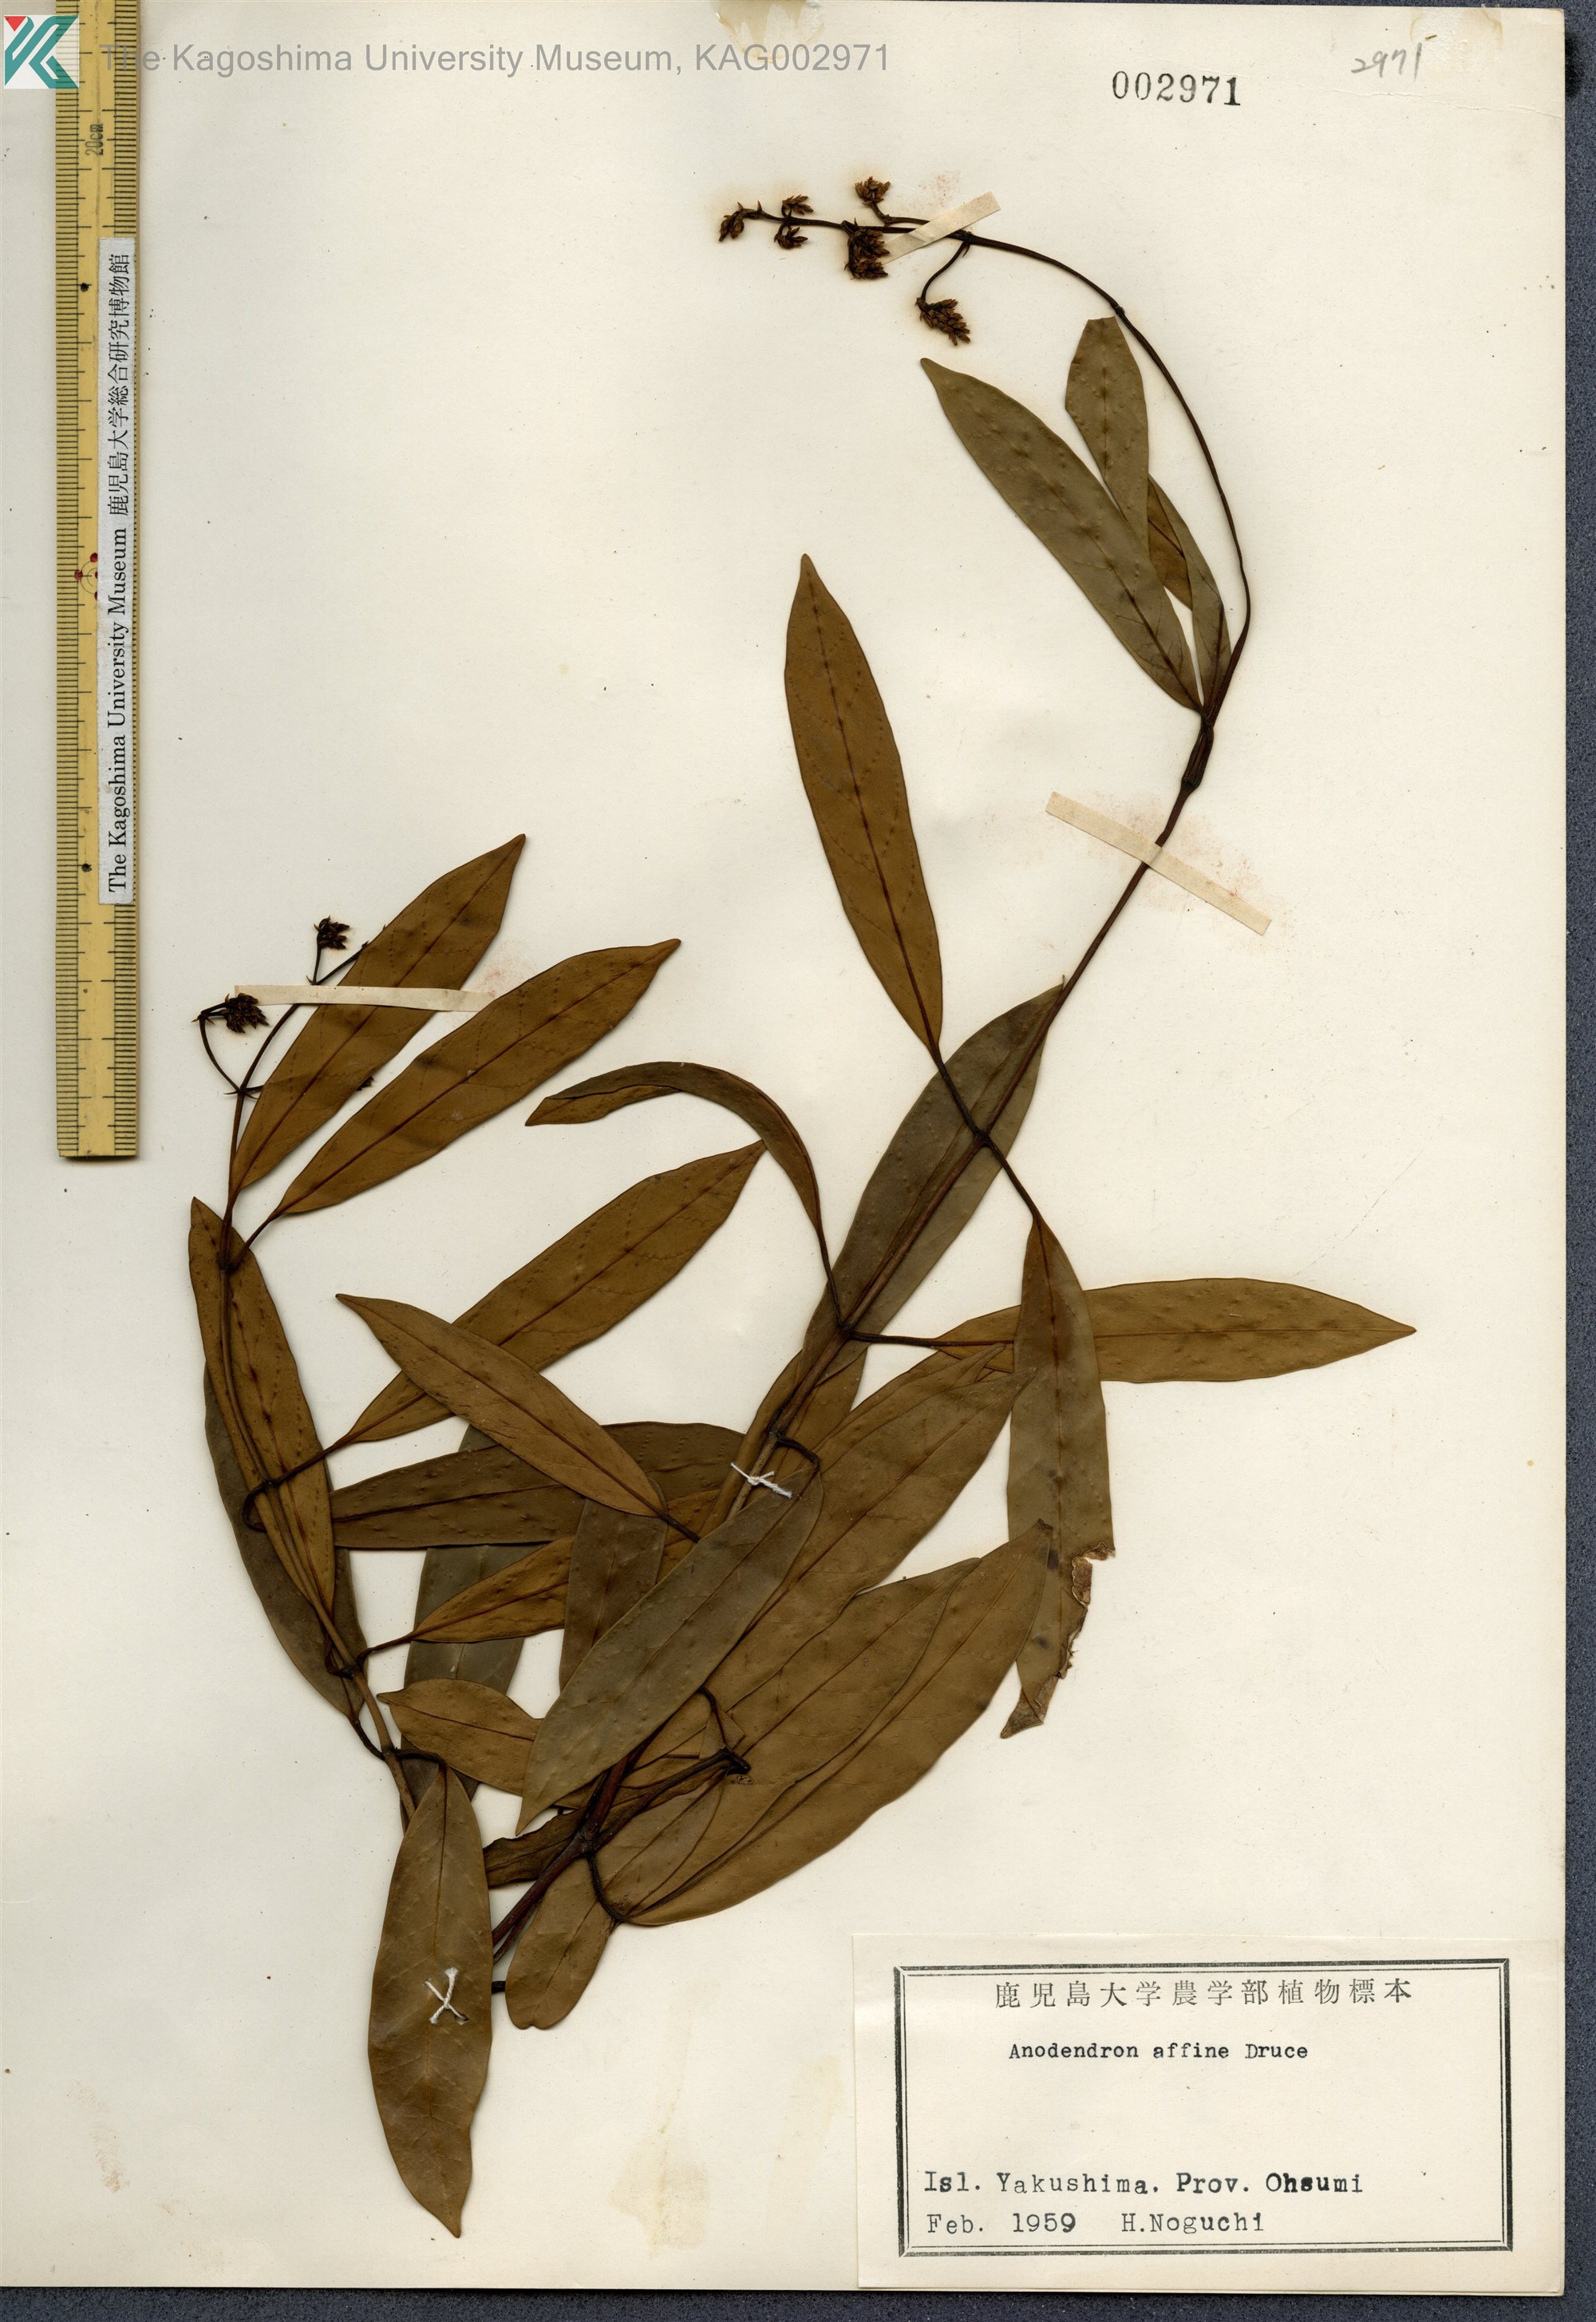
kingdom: Plantae
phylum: Tracheophyta
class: Magnoliopsida
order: Gentianales
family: Apocynaceae
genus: Anodendron
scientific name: Anodendron affine
